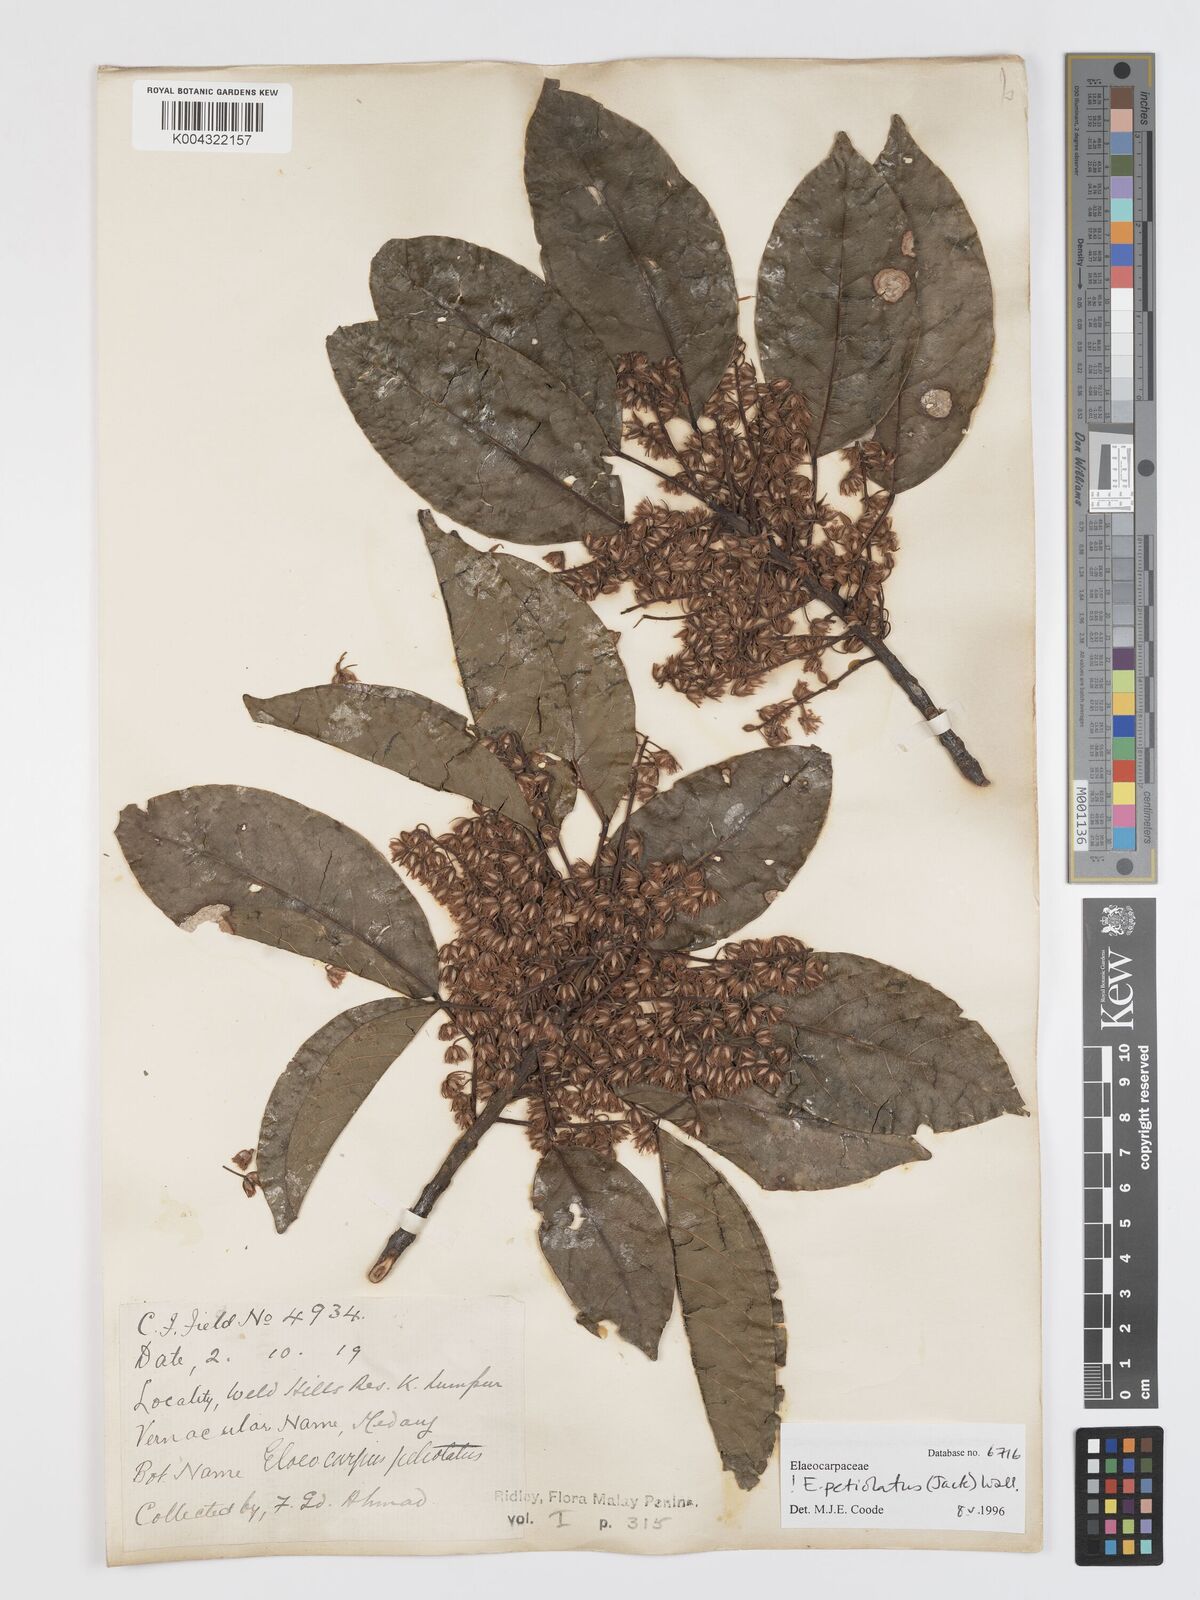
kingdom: Plantae
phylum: Tracheophyta
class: Magnoliopsida
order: Oxalidales
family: Elaeocarpaceae
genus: Elaeocarpus
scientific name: Elaeocarpus
